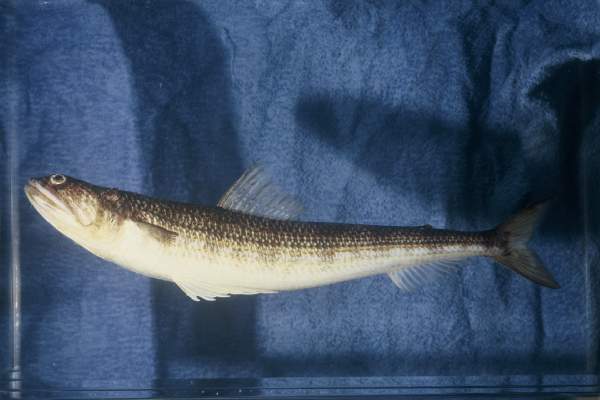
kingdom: Animalia
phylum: Chordata
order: Aulopiformes
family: Synodontidae
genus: Synodus
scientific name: Synodus
